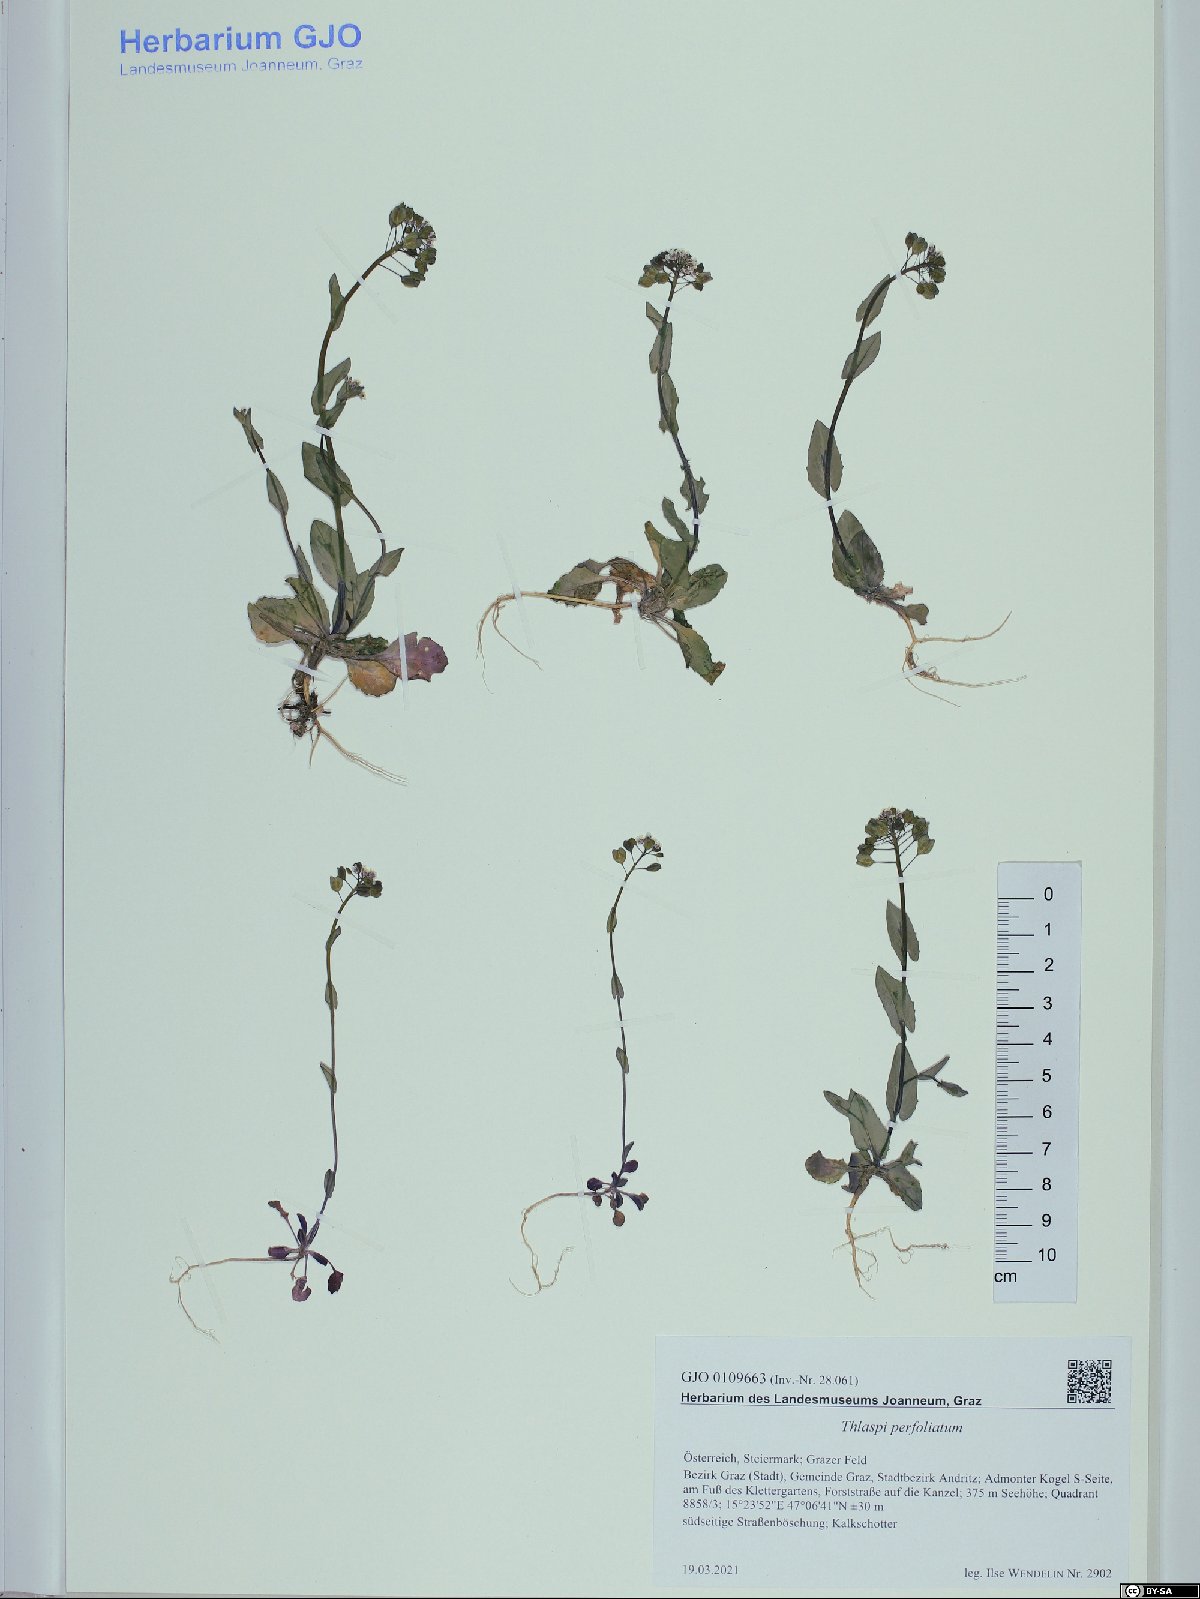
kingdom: Plantae
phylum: Tracheophyta
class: Magnoliopsida
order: Brassicales
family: Brassicaceae
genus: Noccaea
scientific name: Noccaea perfoliata
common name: Perfoliate pennycress
